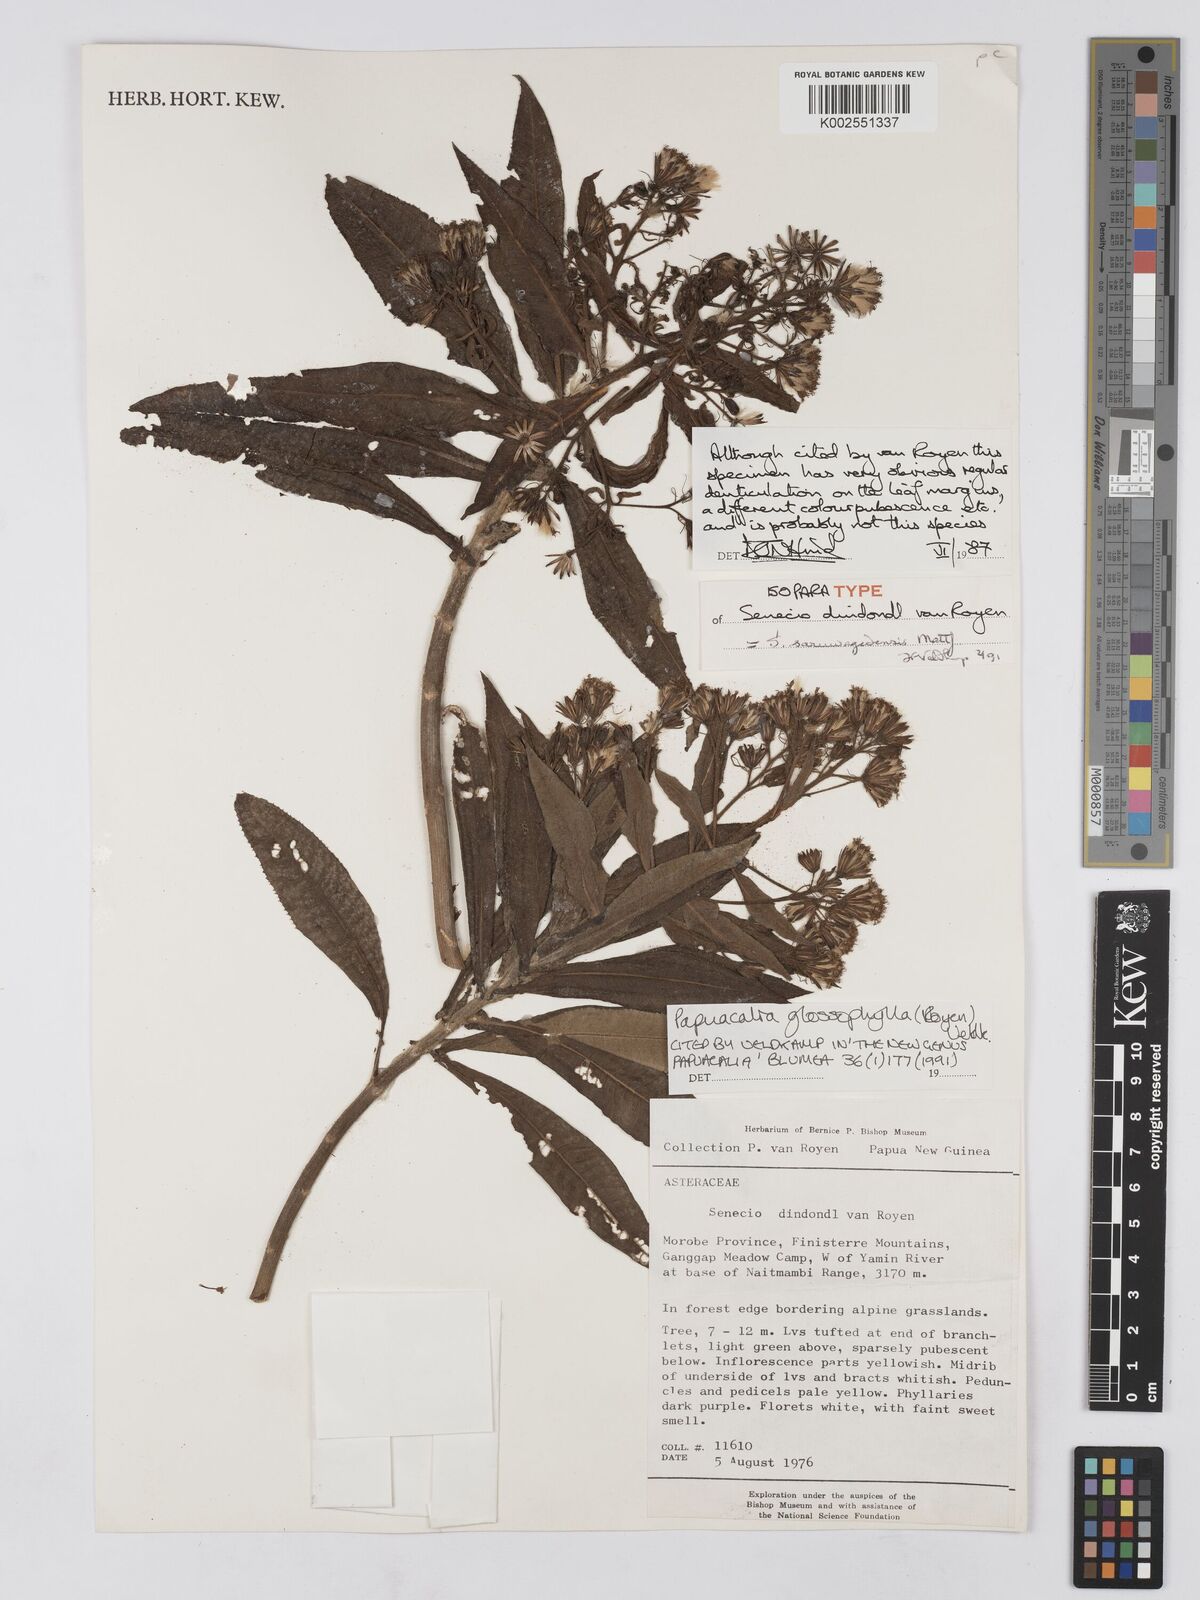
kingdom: Plantae
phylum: Tracheophyta
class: Magnoliopsida
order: Asterales
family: Asteraceae
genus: Papuacalia
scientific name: Papuacalia glossophylla
